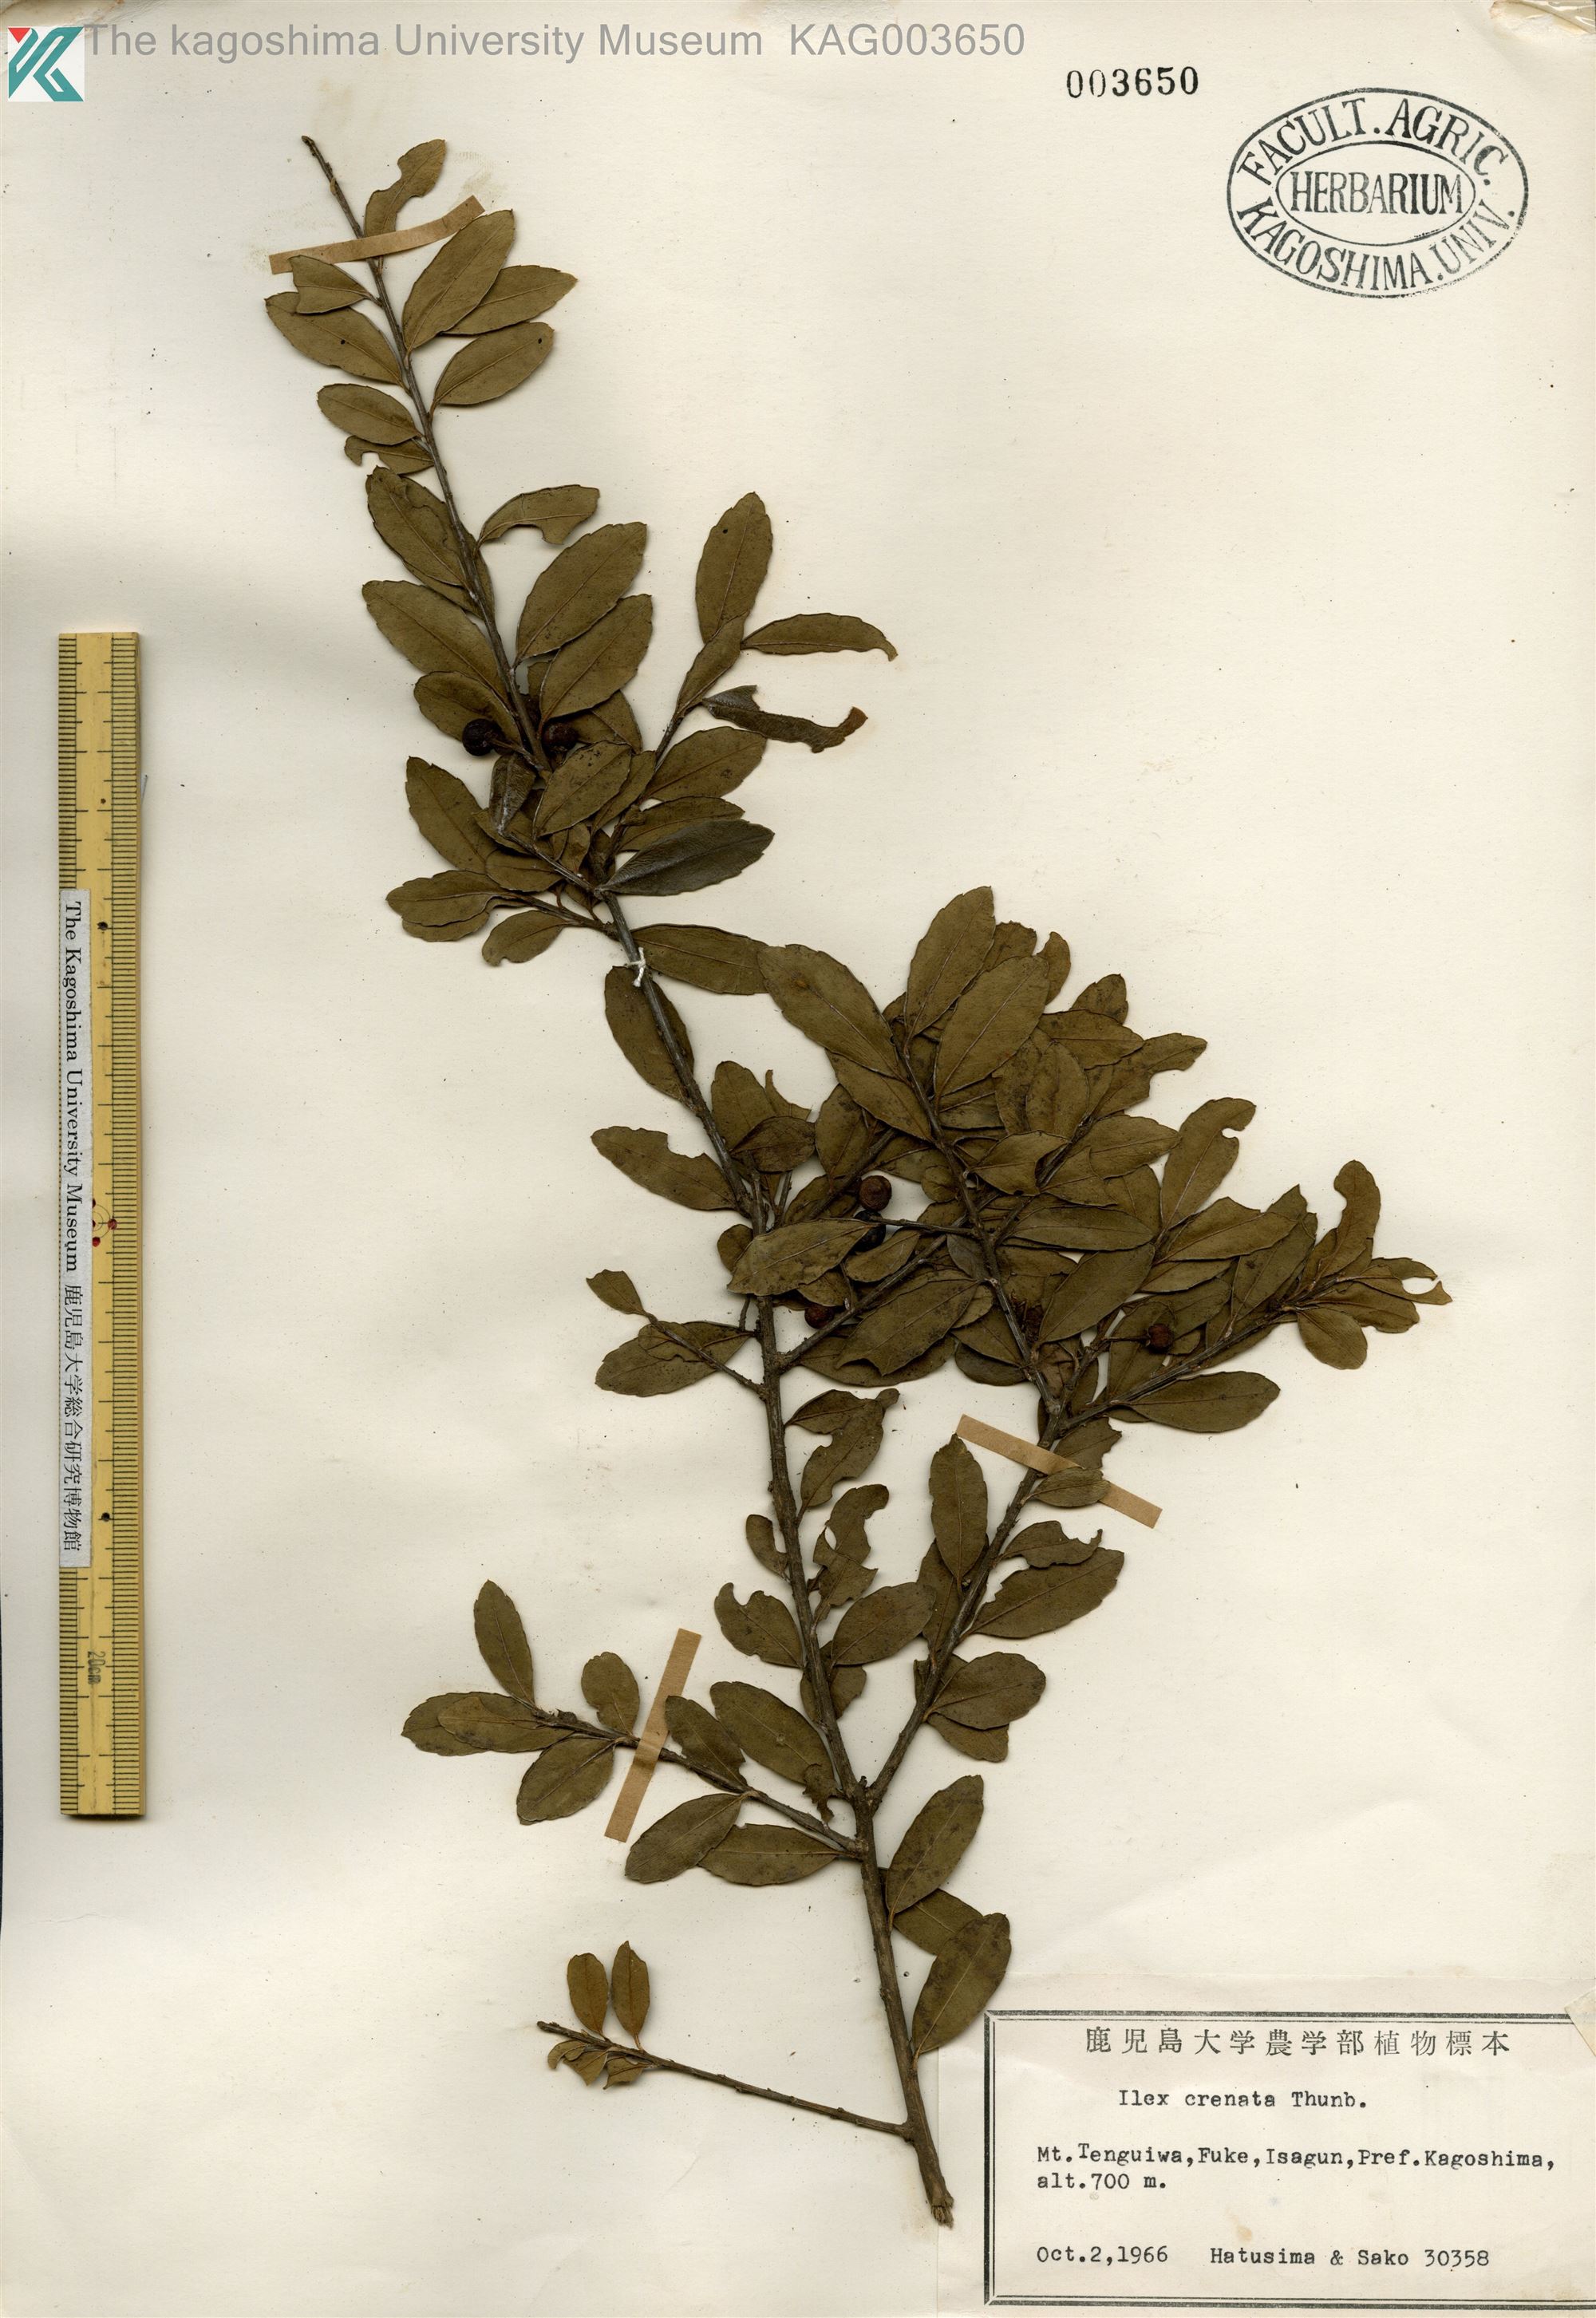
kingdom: Plantae
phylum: Tracheophyta
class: Magnoliopsida
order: Aquifoliales
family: Aquifoliaceae
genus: Ilex
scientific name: Ilex crenata
